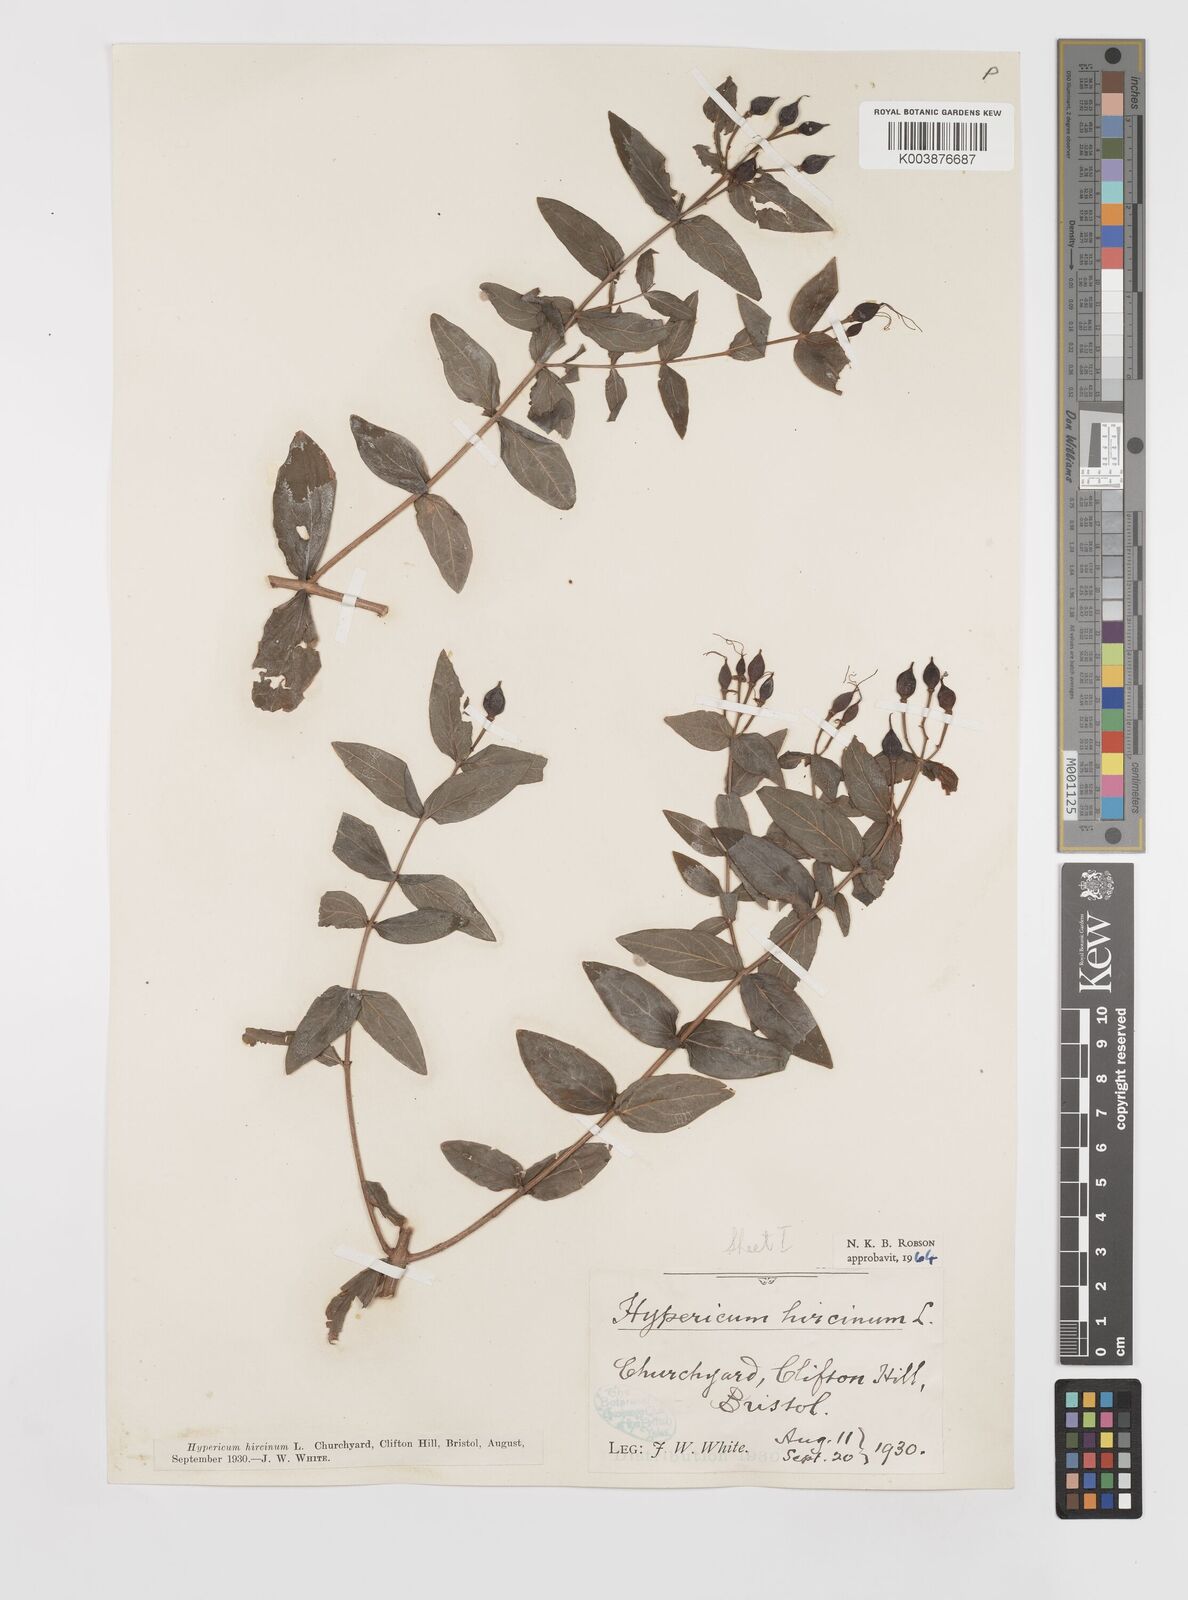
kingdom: Plantae
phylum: Tracheophyta
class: Magnoliopsida
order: Malpighiales
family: Hypericaceae
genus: Hypericum
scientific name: Hypericum hircinum
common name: Stinking tutsan
